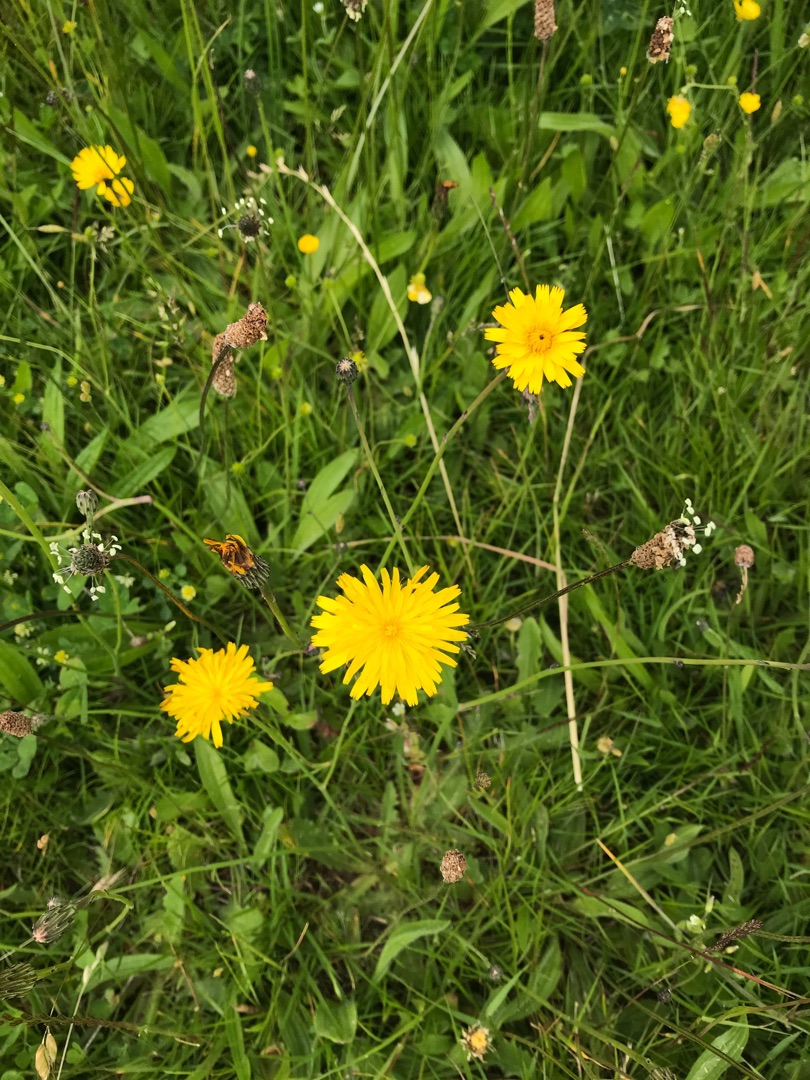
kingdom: Plantae
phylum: Tracheophyta
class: Magnoliopsida
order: Asterales
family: Asteraceae
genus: Hypochaeris
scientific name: Hypochaeris radicata
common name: Almindelig kongepen
